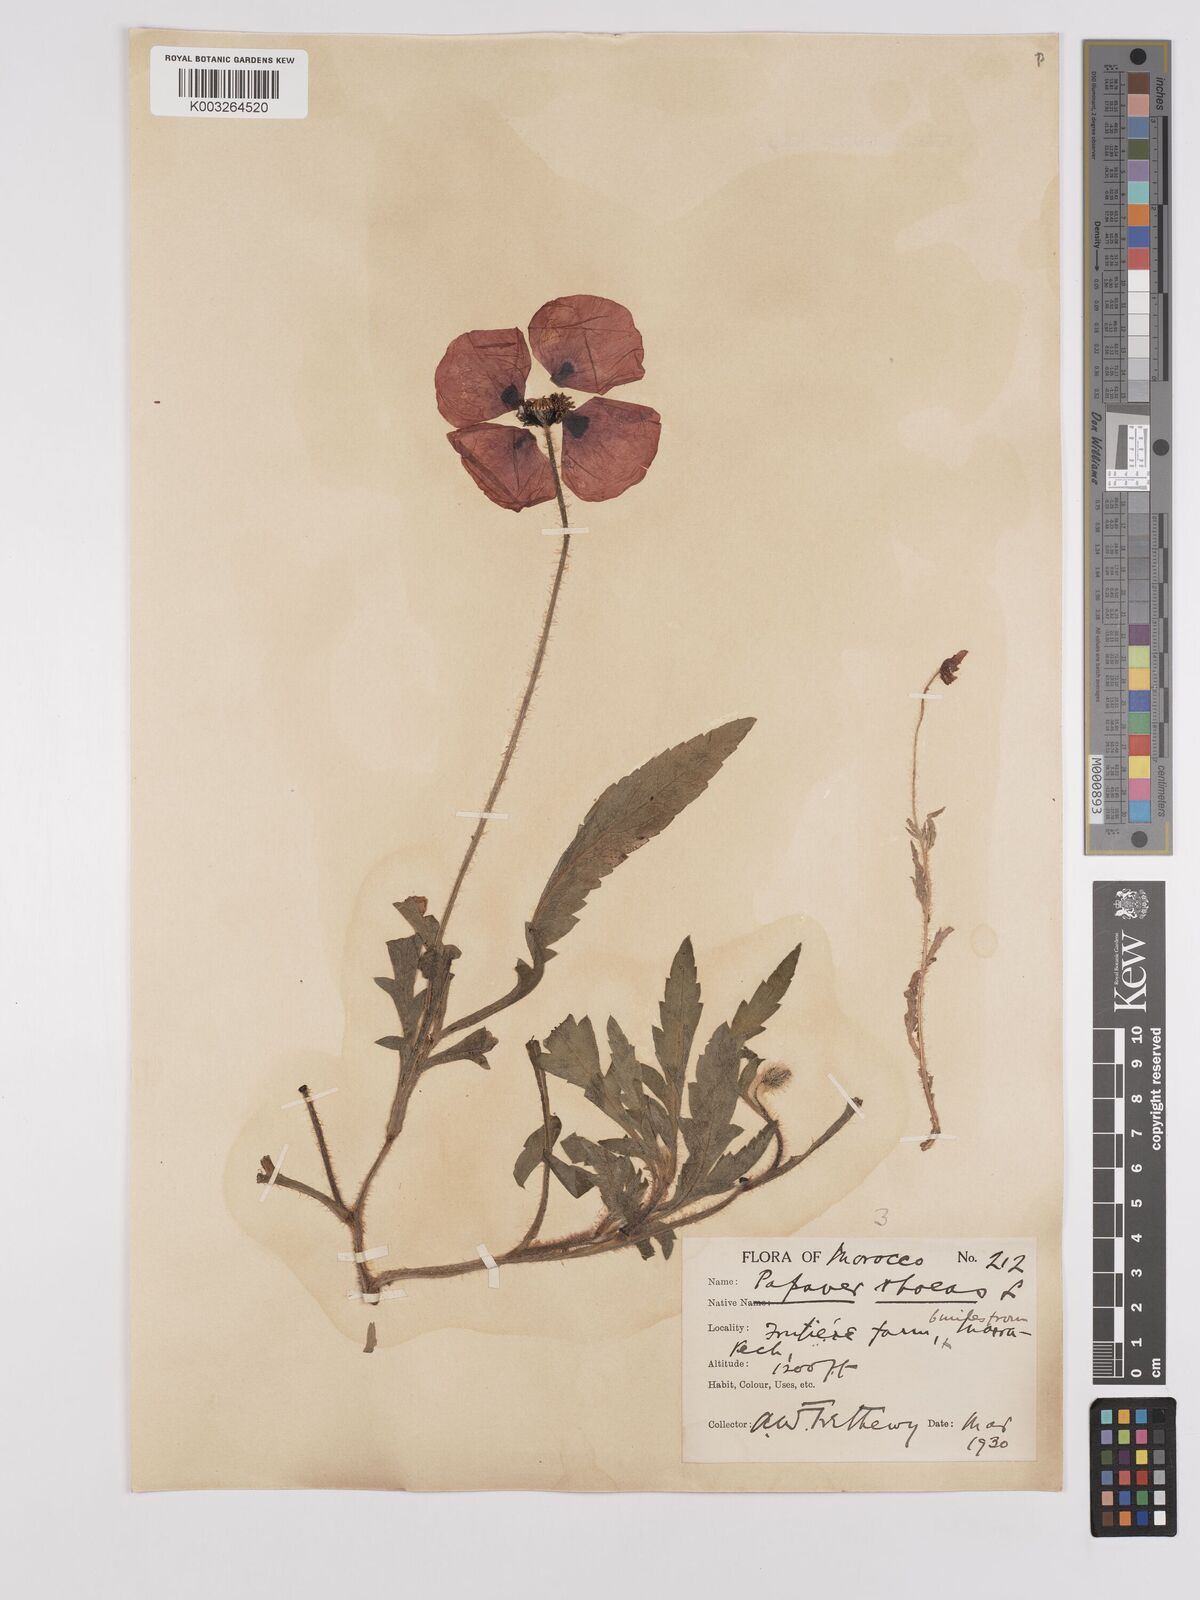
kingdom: Plantae
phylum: Tracheophyta
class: Magnoliopsida
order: Ranunculales
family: Papaveraceae
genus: Papaver
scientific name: Papaver rhoeas
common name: Corn poppy
